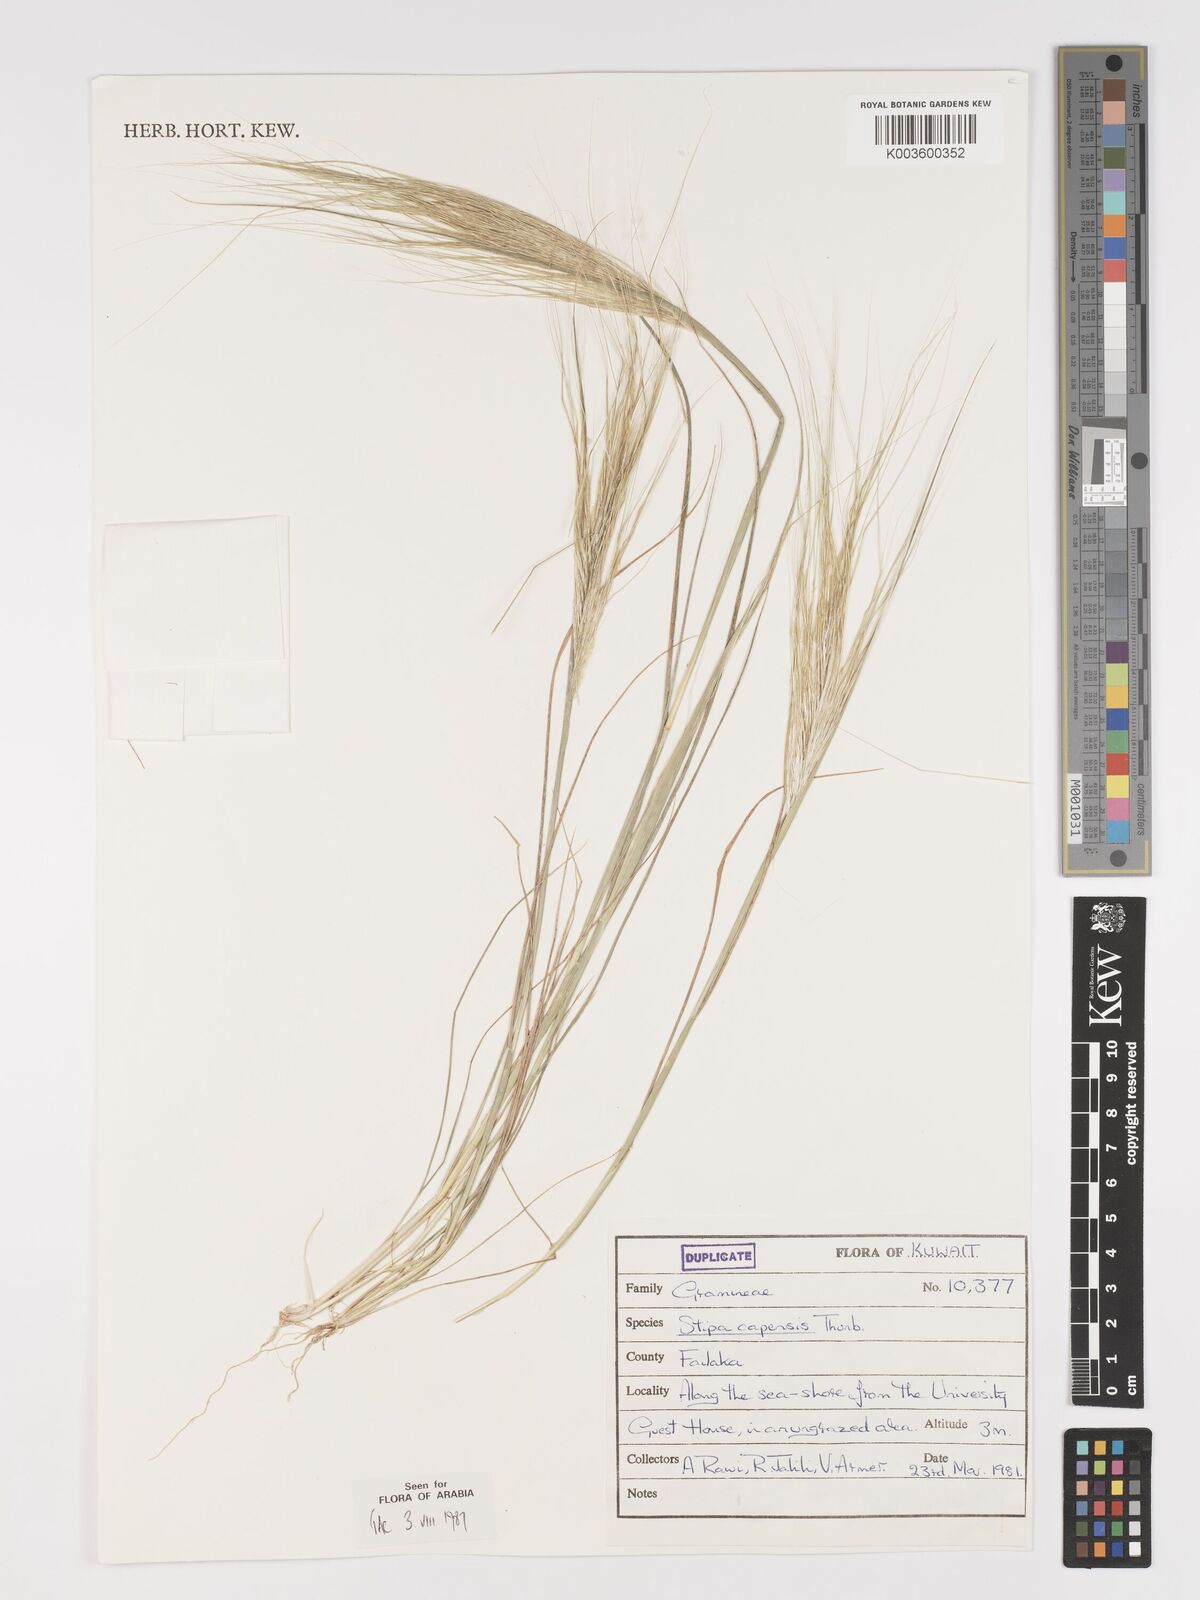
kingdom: Plantae
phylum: Tracheophyta
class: Liliopsida
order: Poales
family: Poaceae
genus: Stipellula
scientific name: Stipellula capensis
